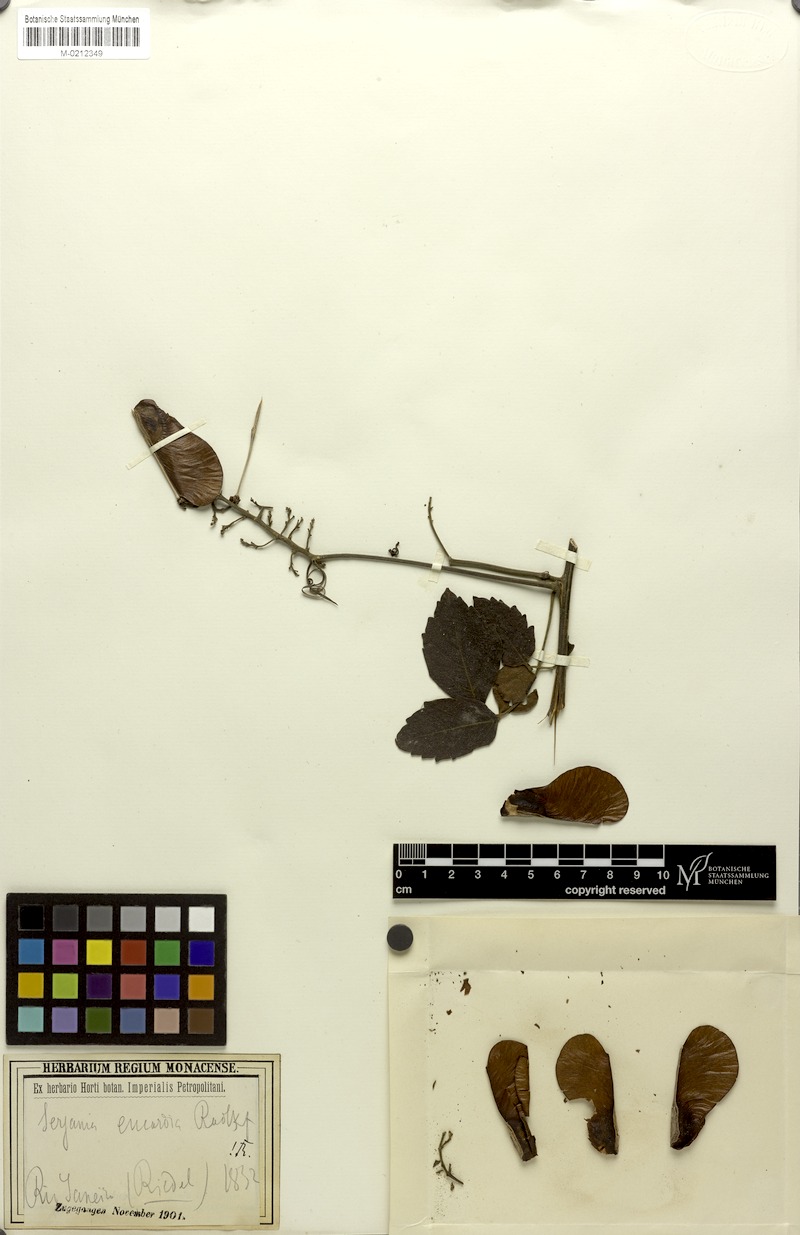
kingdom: Plantae
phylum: Tracheophyta
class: Magnoliopsida
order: Sapindales
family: Sapindaceae
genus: Serjania
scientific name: Serjania eucardia
